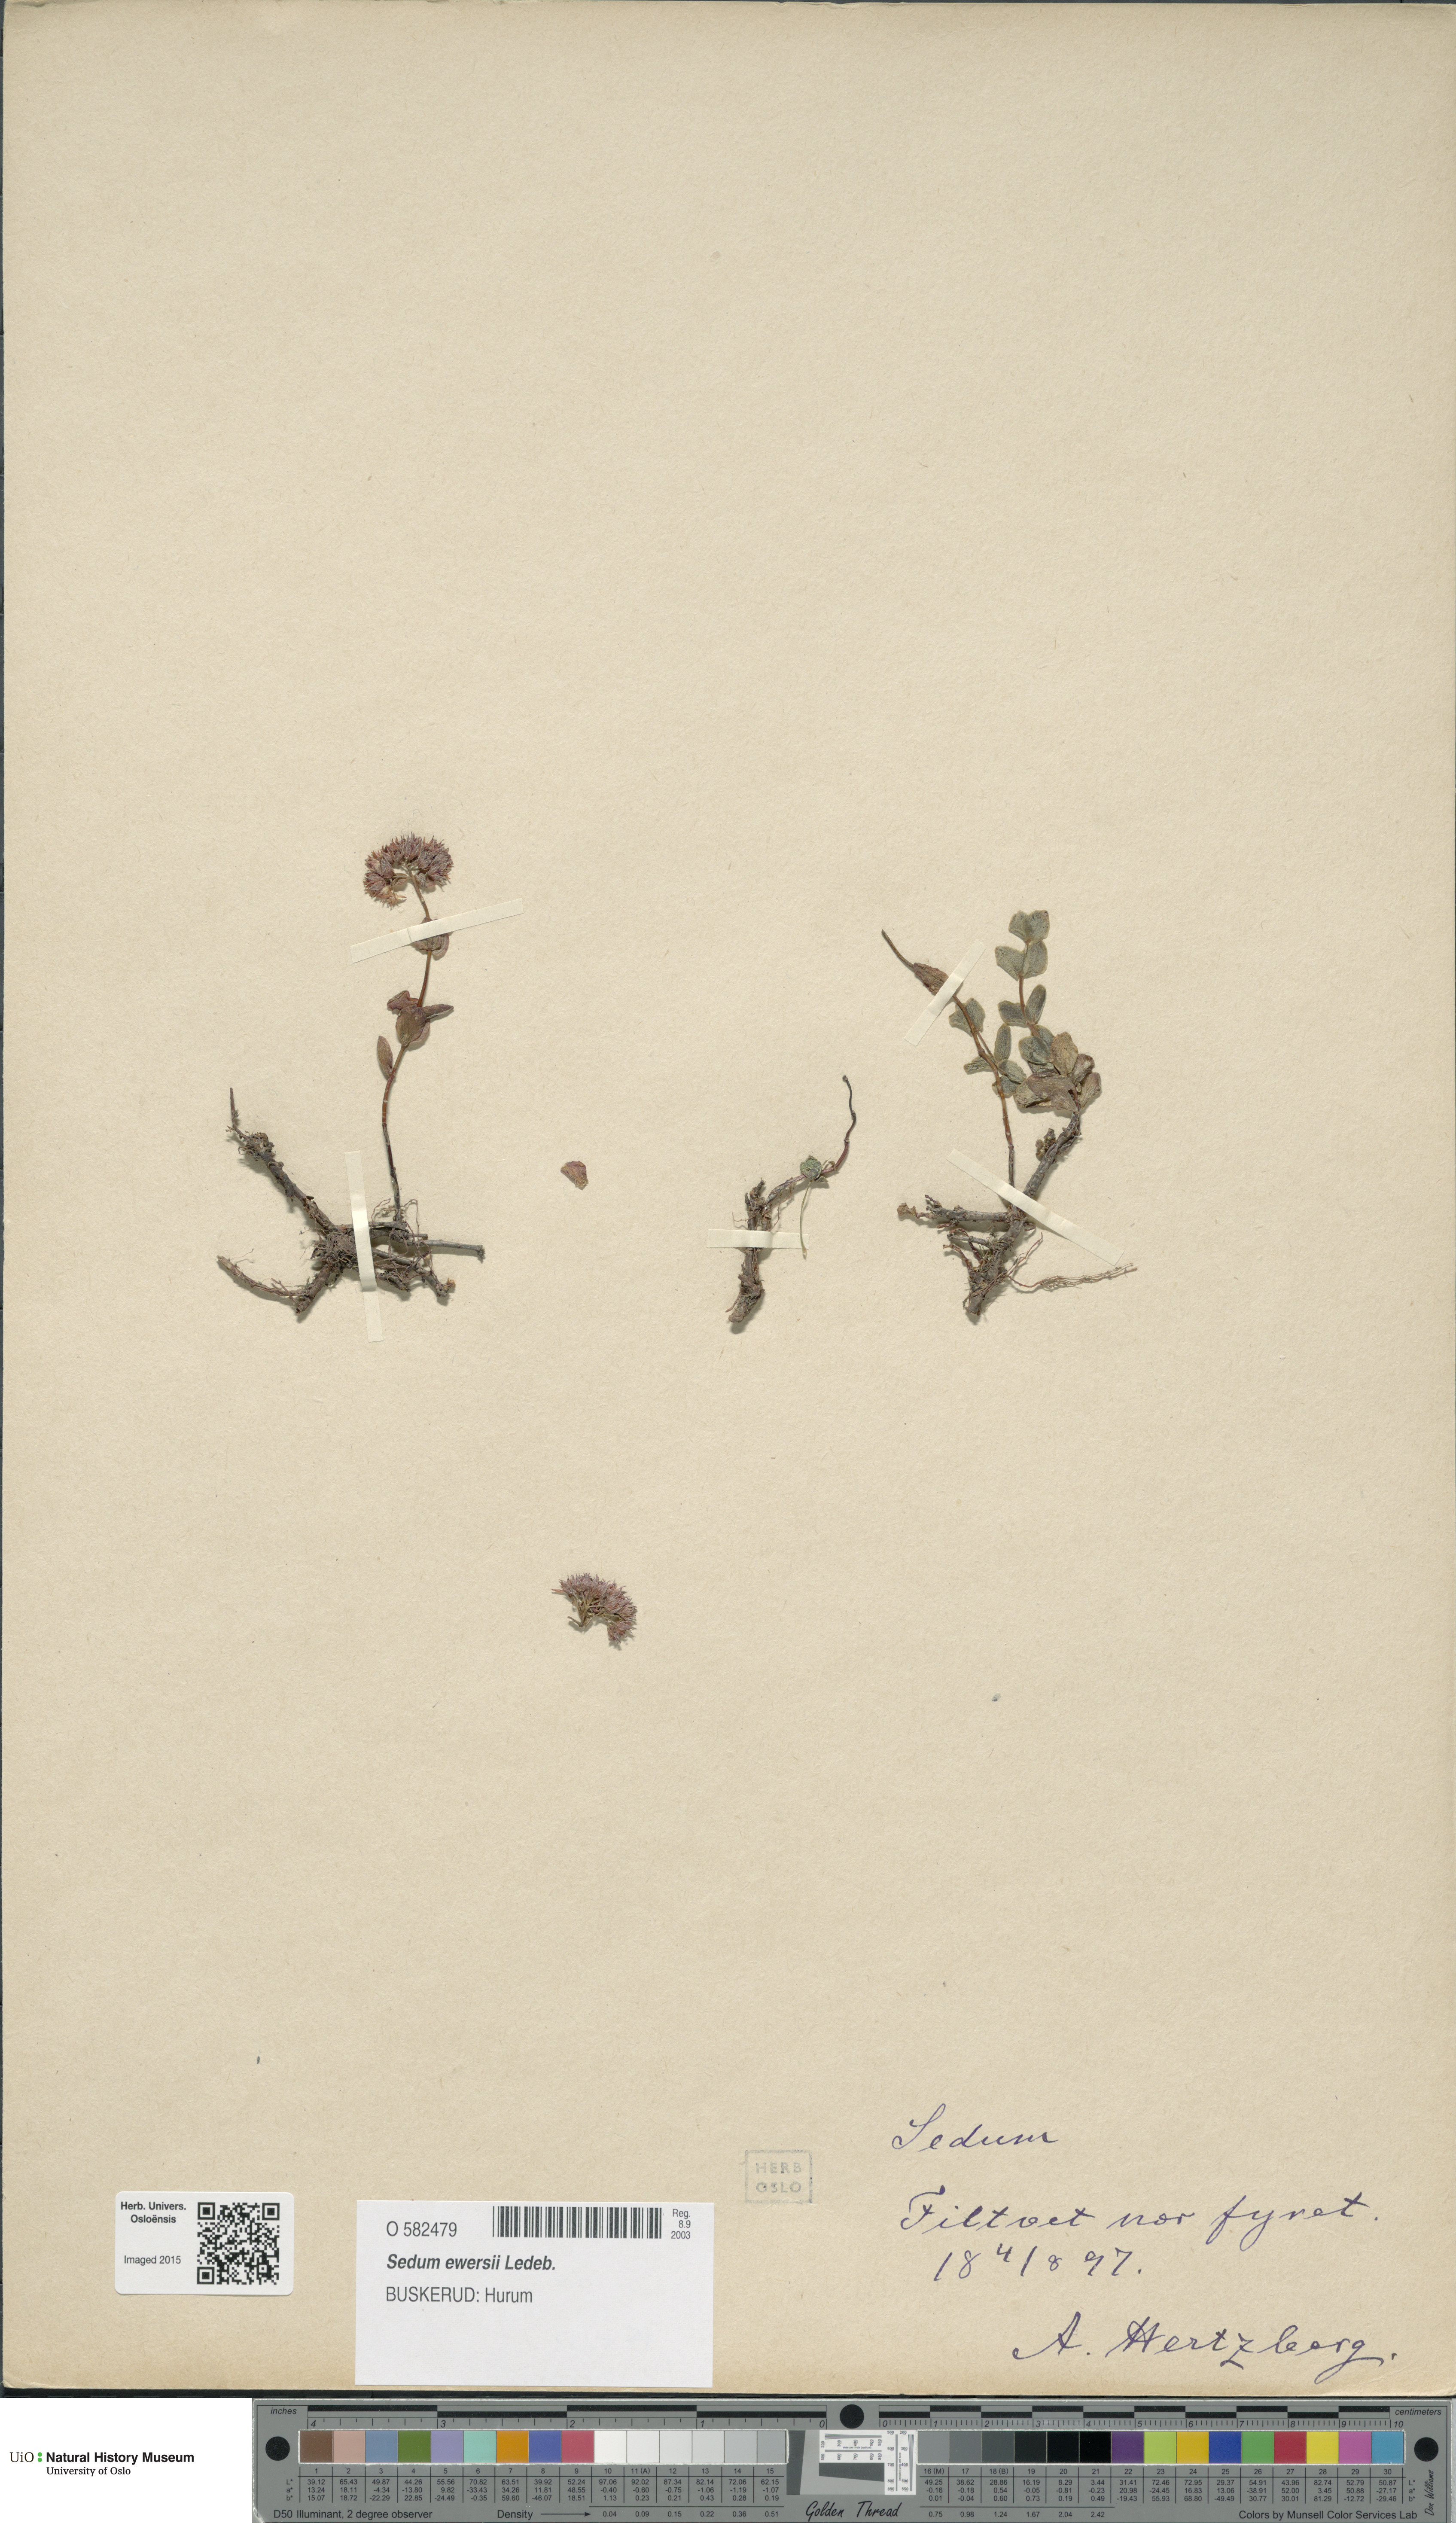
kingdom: Plantae
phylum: Tracheophyta
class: Magnoliopsida
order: Saxifragales
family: Crassulaceae
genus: Hylotelephium
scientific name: Hylotelephium ewersii
